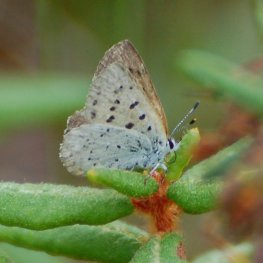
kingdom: Animalia
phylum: Arthropoda
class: Insecta
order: Lepidoptera
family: Sesiidae
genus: Sesia
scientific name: Sesia Lycaena epixanthe
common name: Bog Copper
